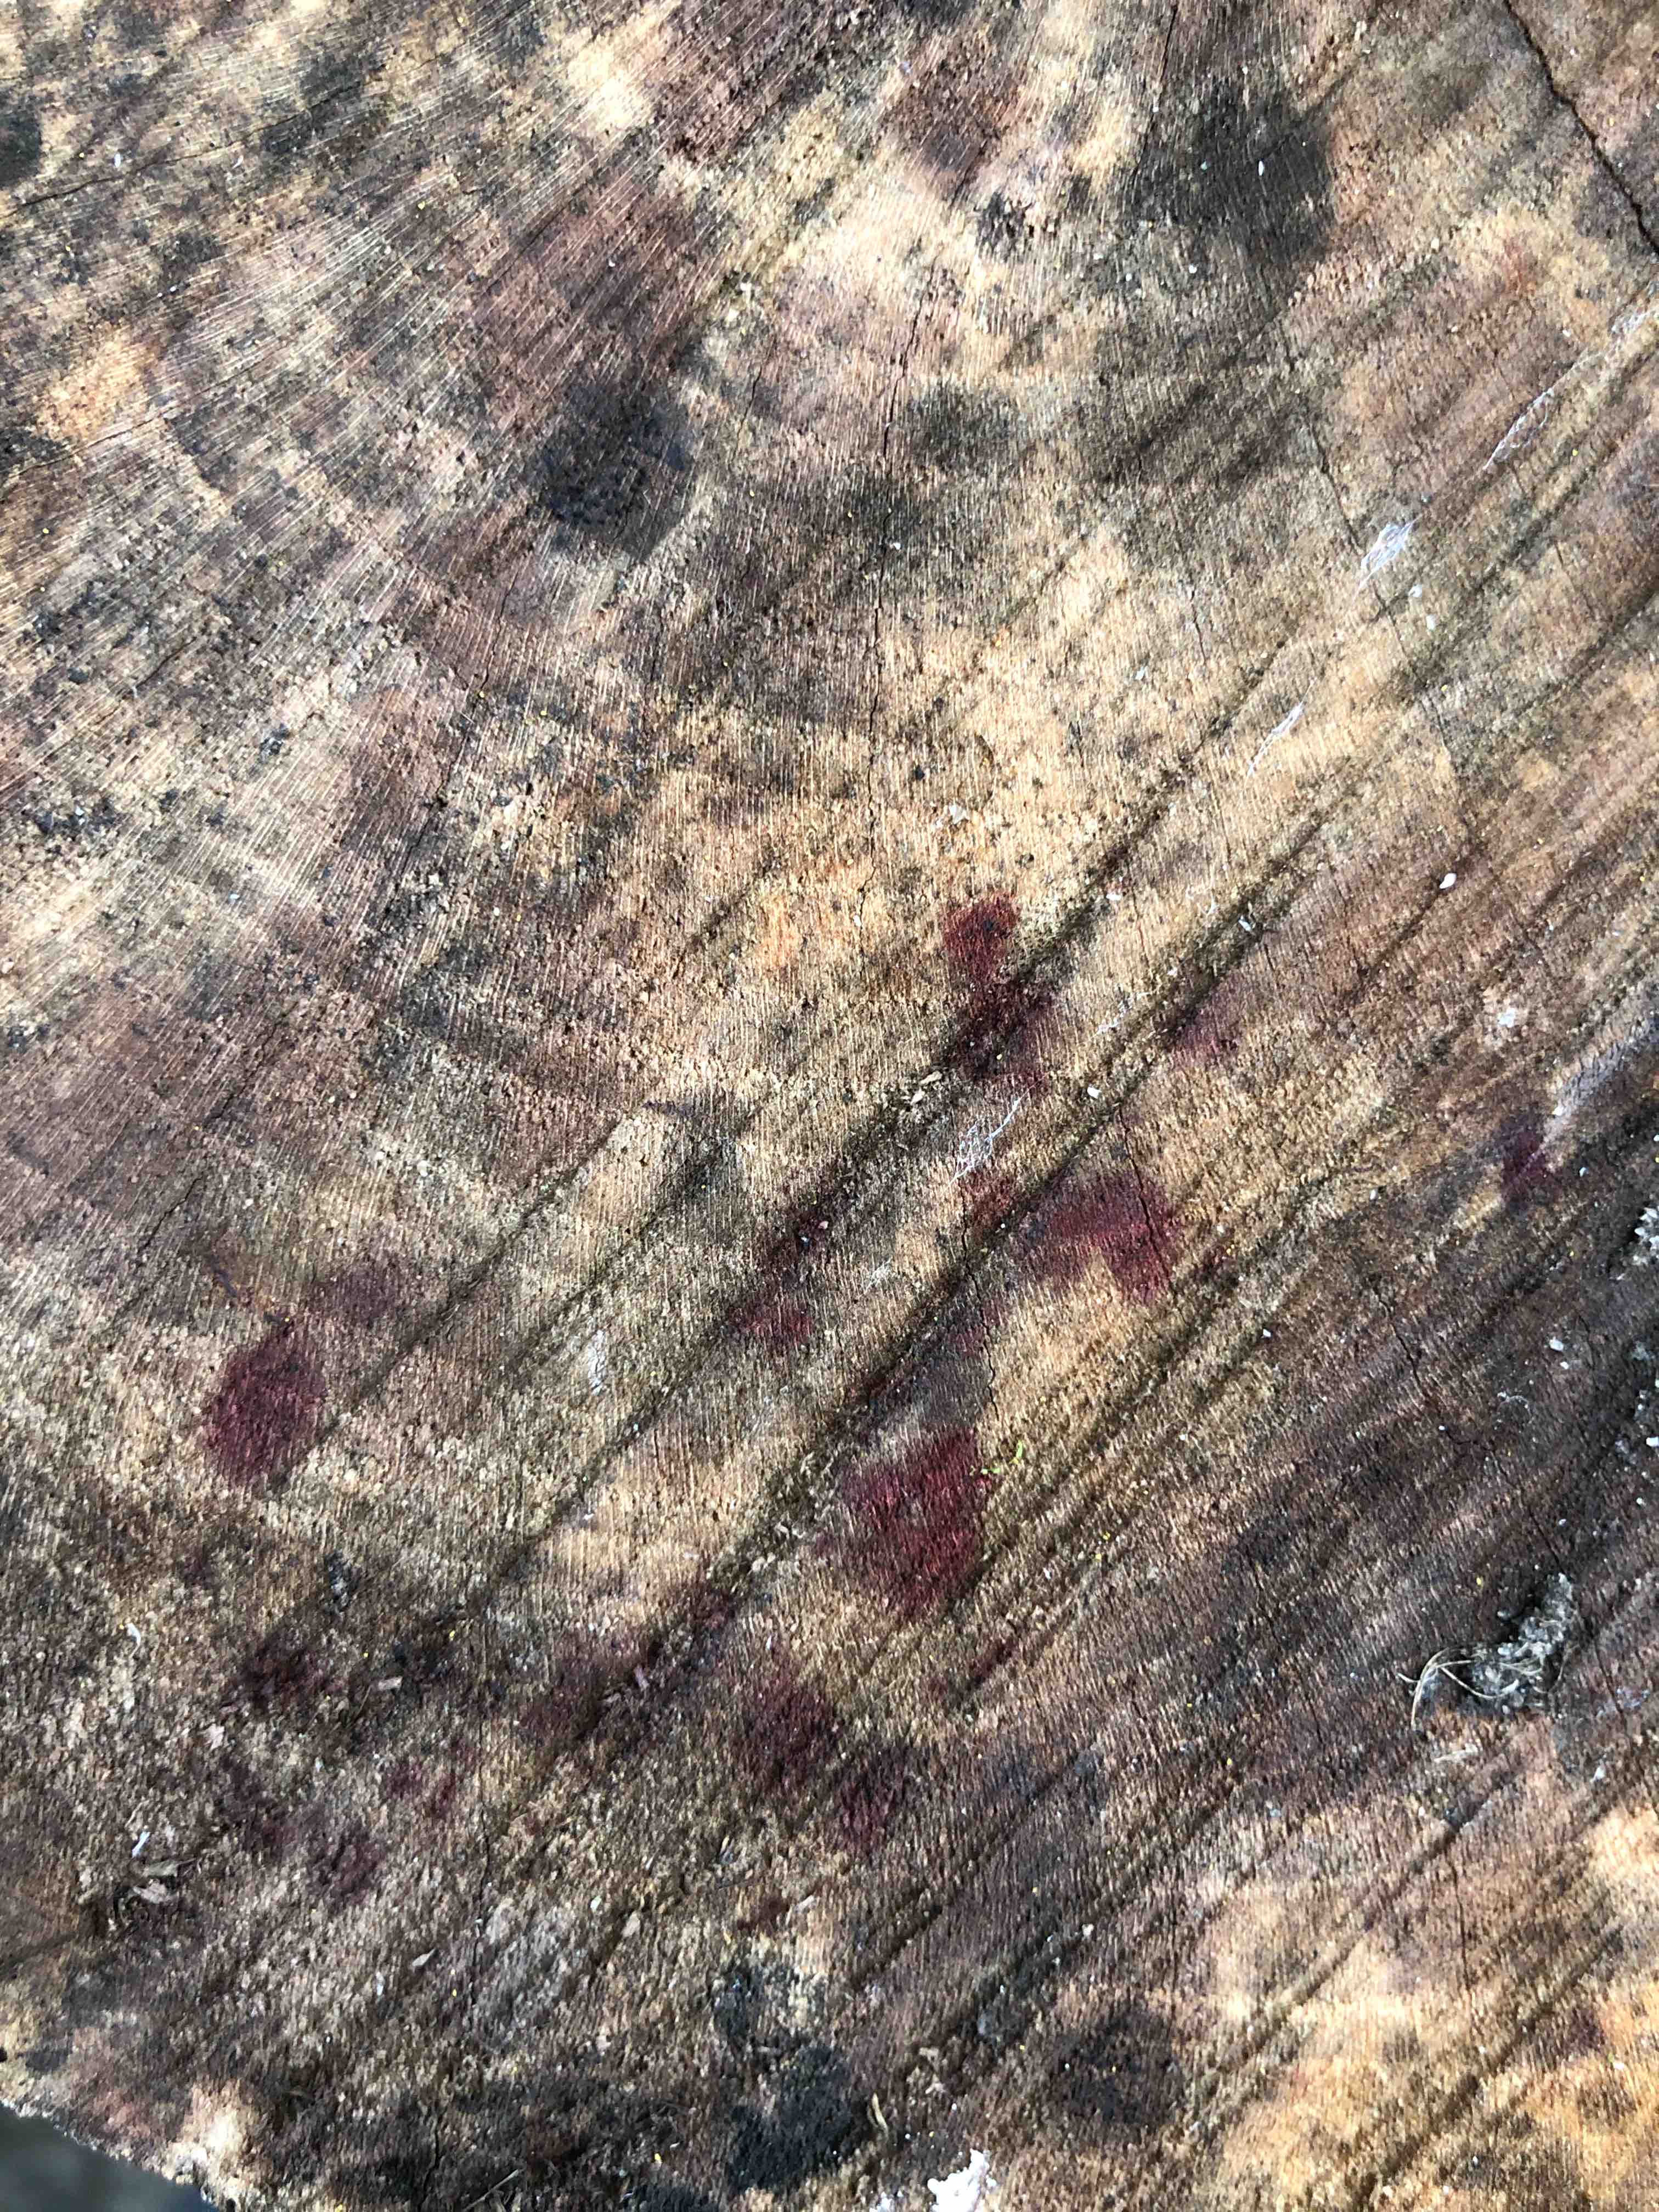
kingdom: Fungi
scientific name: Fungi
